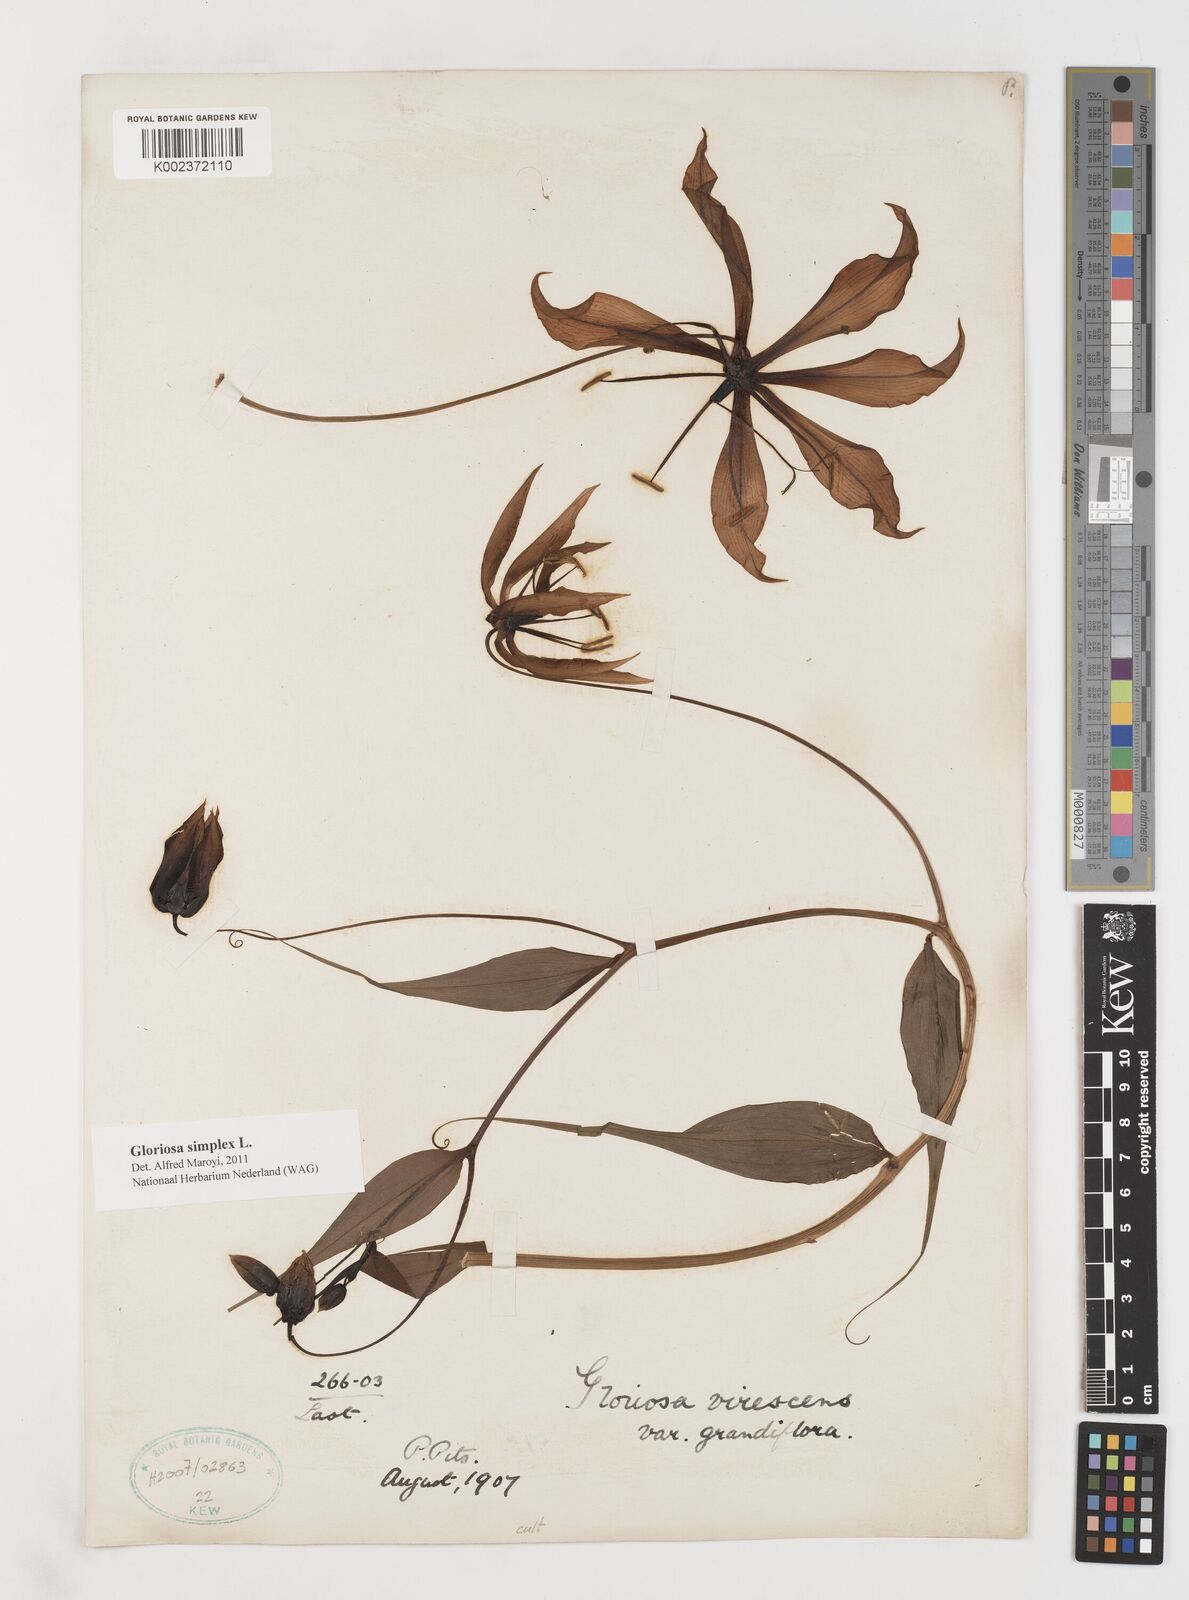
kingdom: Plantae
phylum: Tracheophyta
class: Liliopsida
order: Liliales
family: Colchicaceae
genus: Gloriosa
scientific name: Gloriosa simplex
